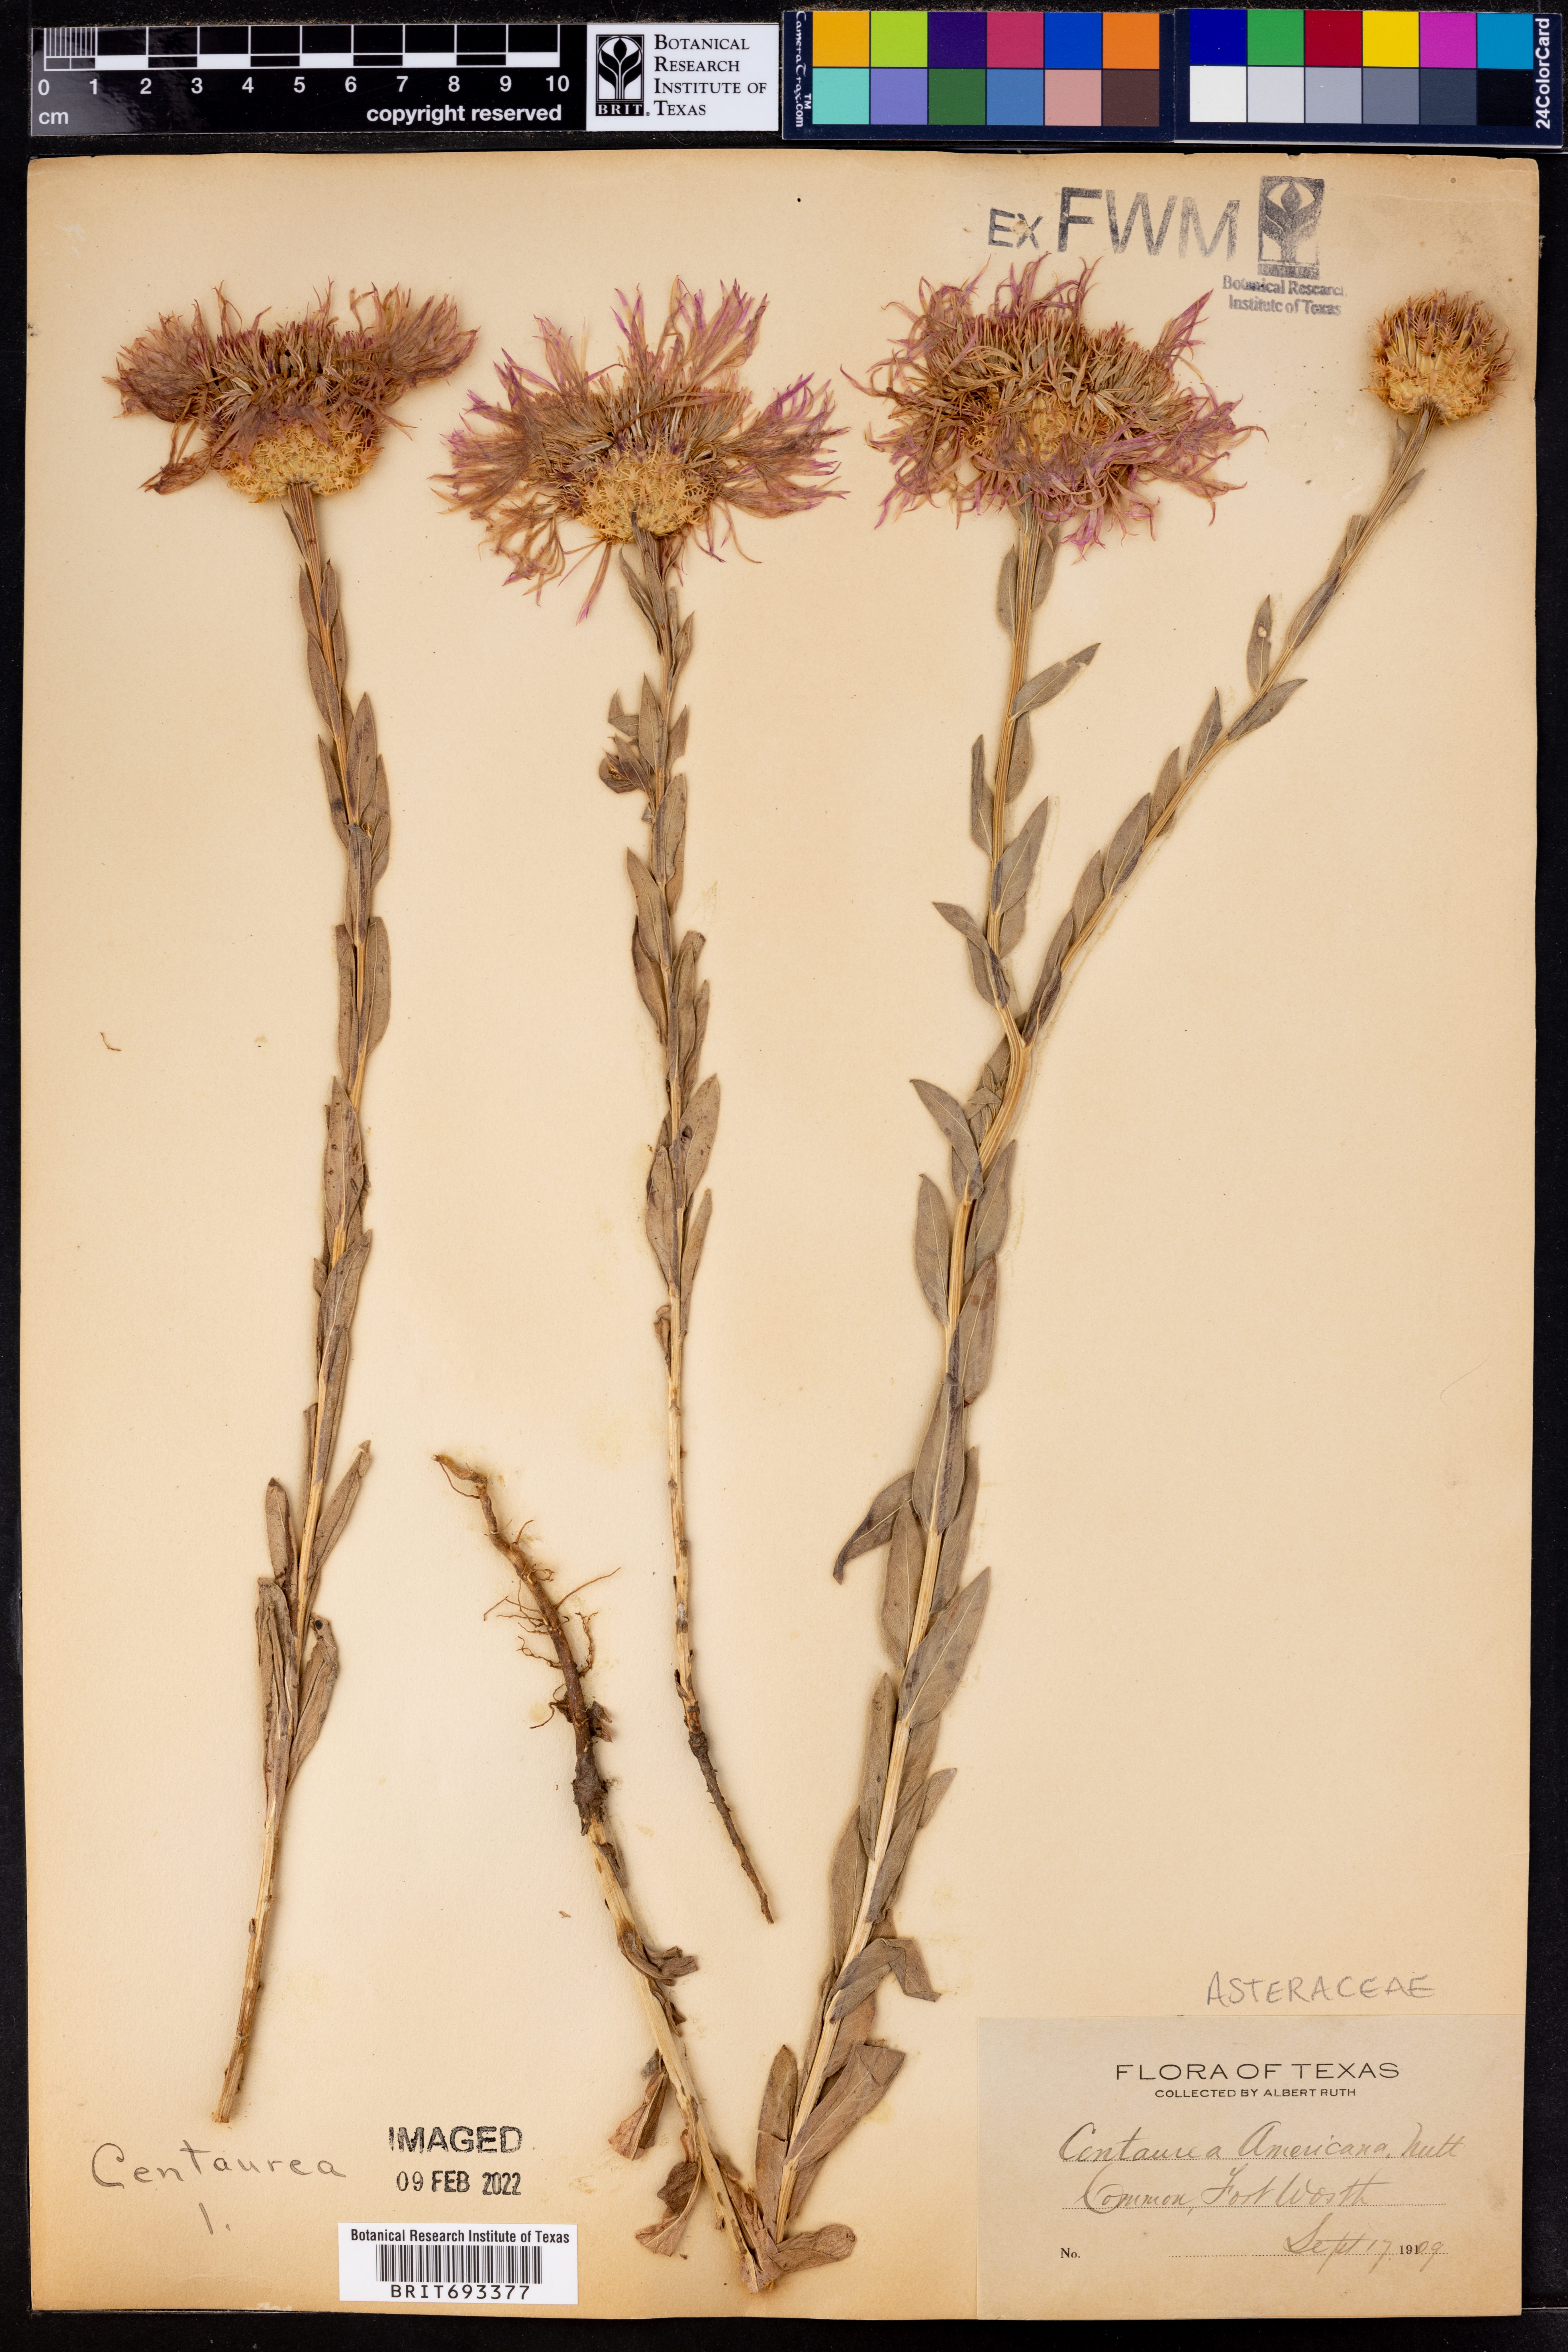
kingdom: Plantae
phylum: Tracheophyta
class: Magnoliopsida
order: Asterales
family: Asteraceae
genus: Plectocephalus
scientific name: Plectocephalus americanus
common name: American basket-flower
